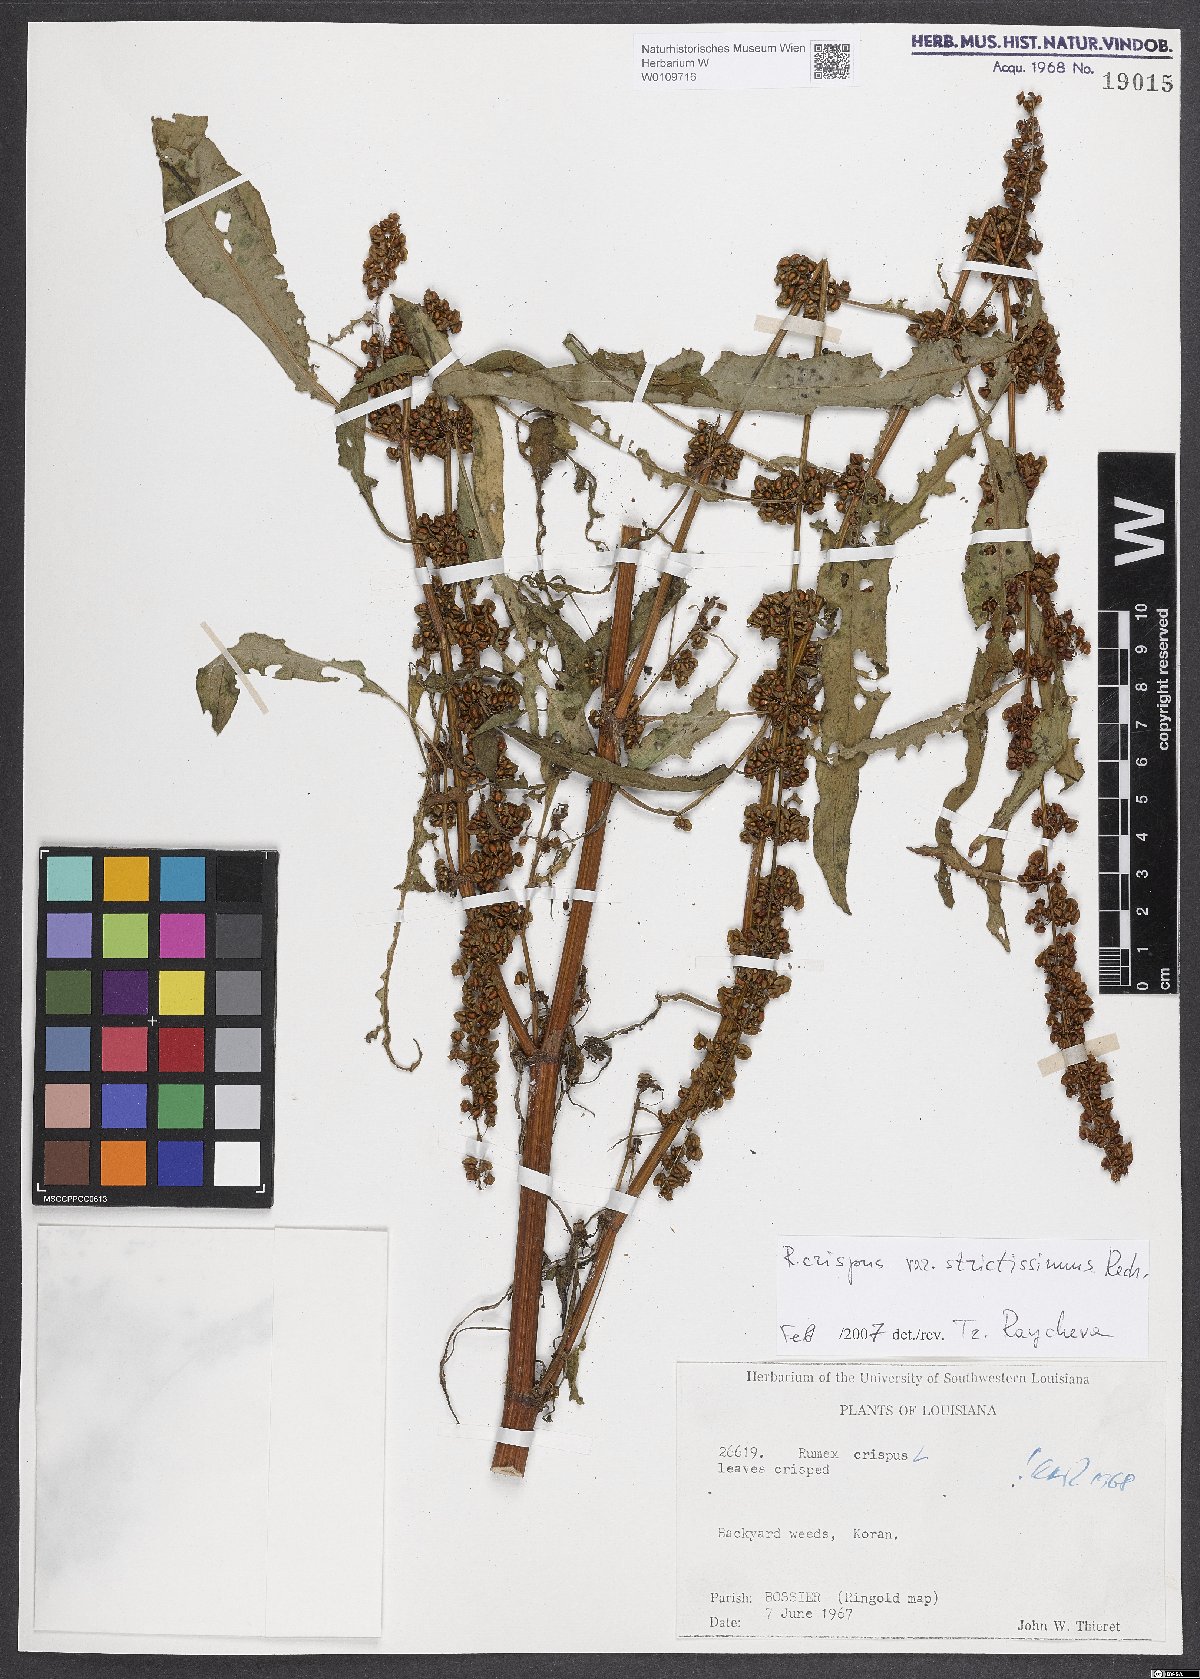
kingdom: Plantae
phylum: Tracheophyta
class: Magnoliopsida
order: Caryophyllales
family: Polygonaceae
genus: Rumex
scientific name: Rumex crispus
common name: Curled dock
